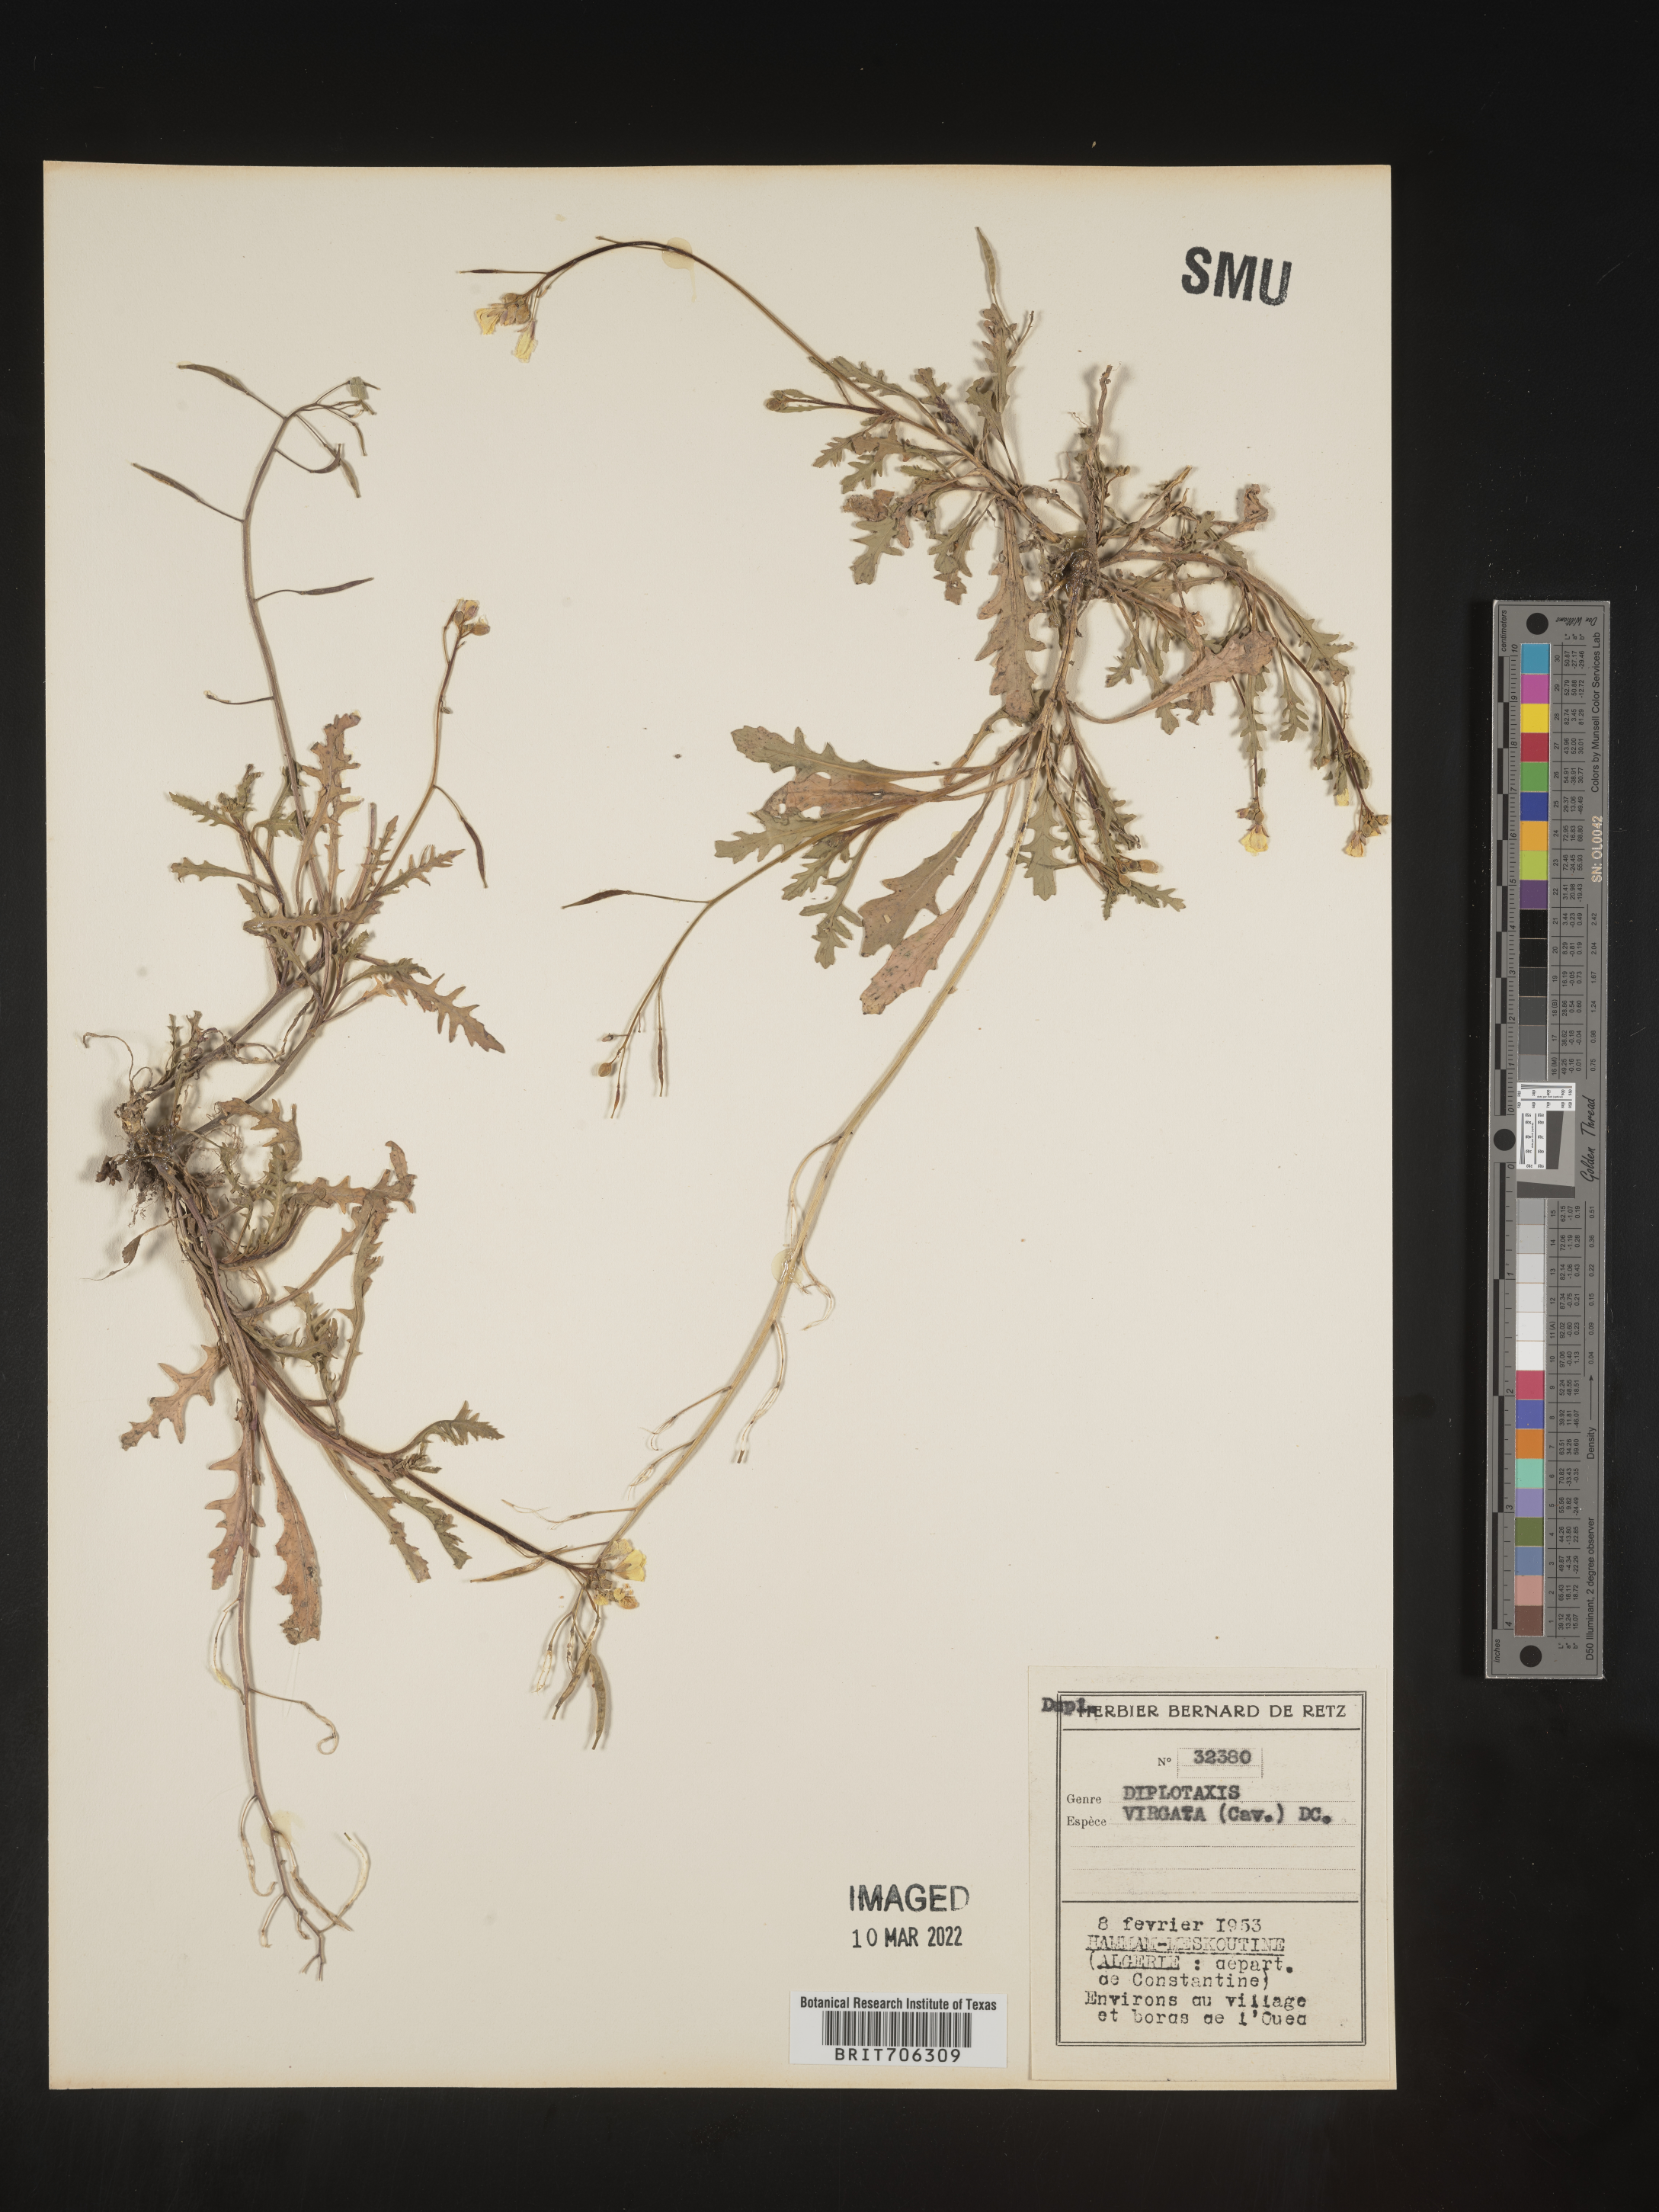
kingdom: Plantae
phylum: Tracheophyta
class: Magnoliopsida
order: Brassicales
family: Brassicaceae
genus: Diplotaxis
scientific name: Diplotaxis
